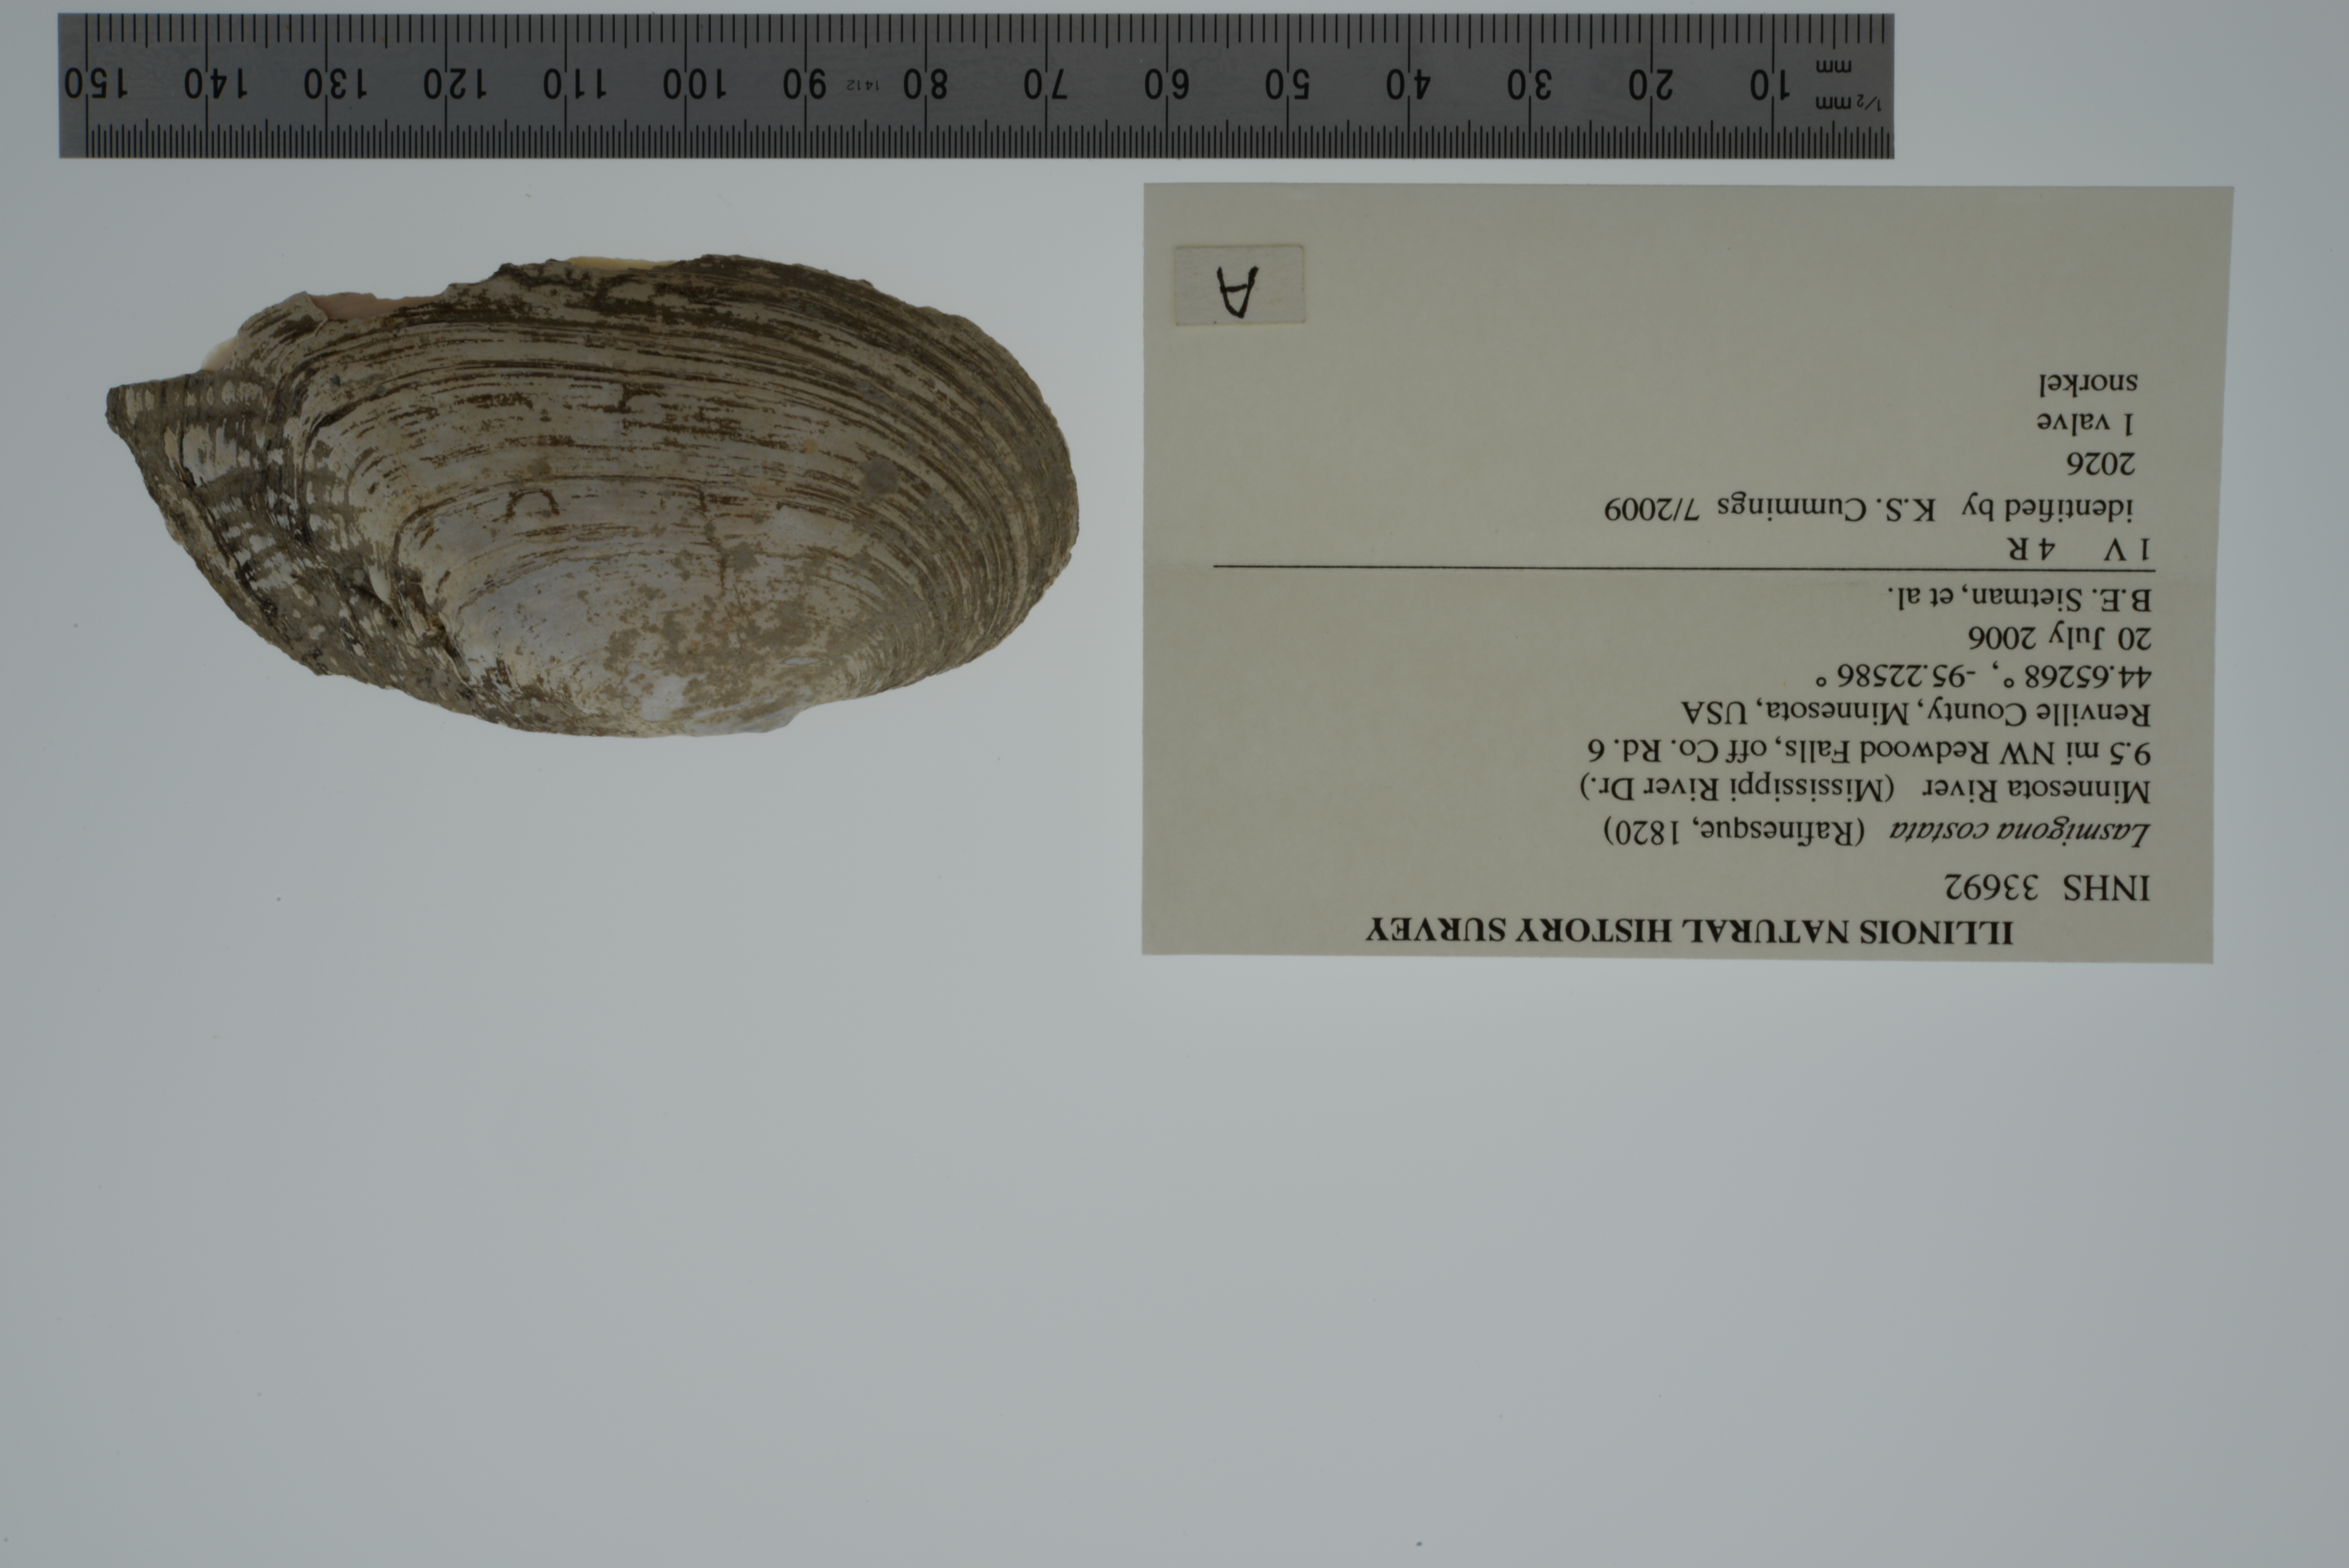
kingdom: Animalia
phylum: Mollusca
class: Bivalvia
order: Unionida
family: Unionidae
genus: Lasmigona
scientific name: Lasmigona costata
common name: Flutedshell
